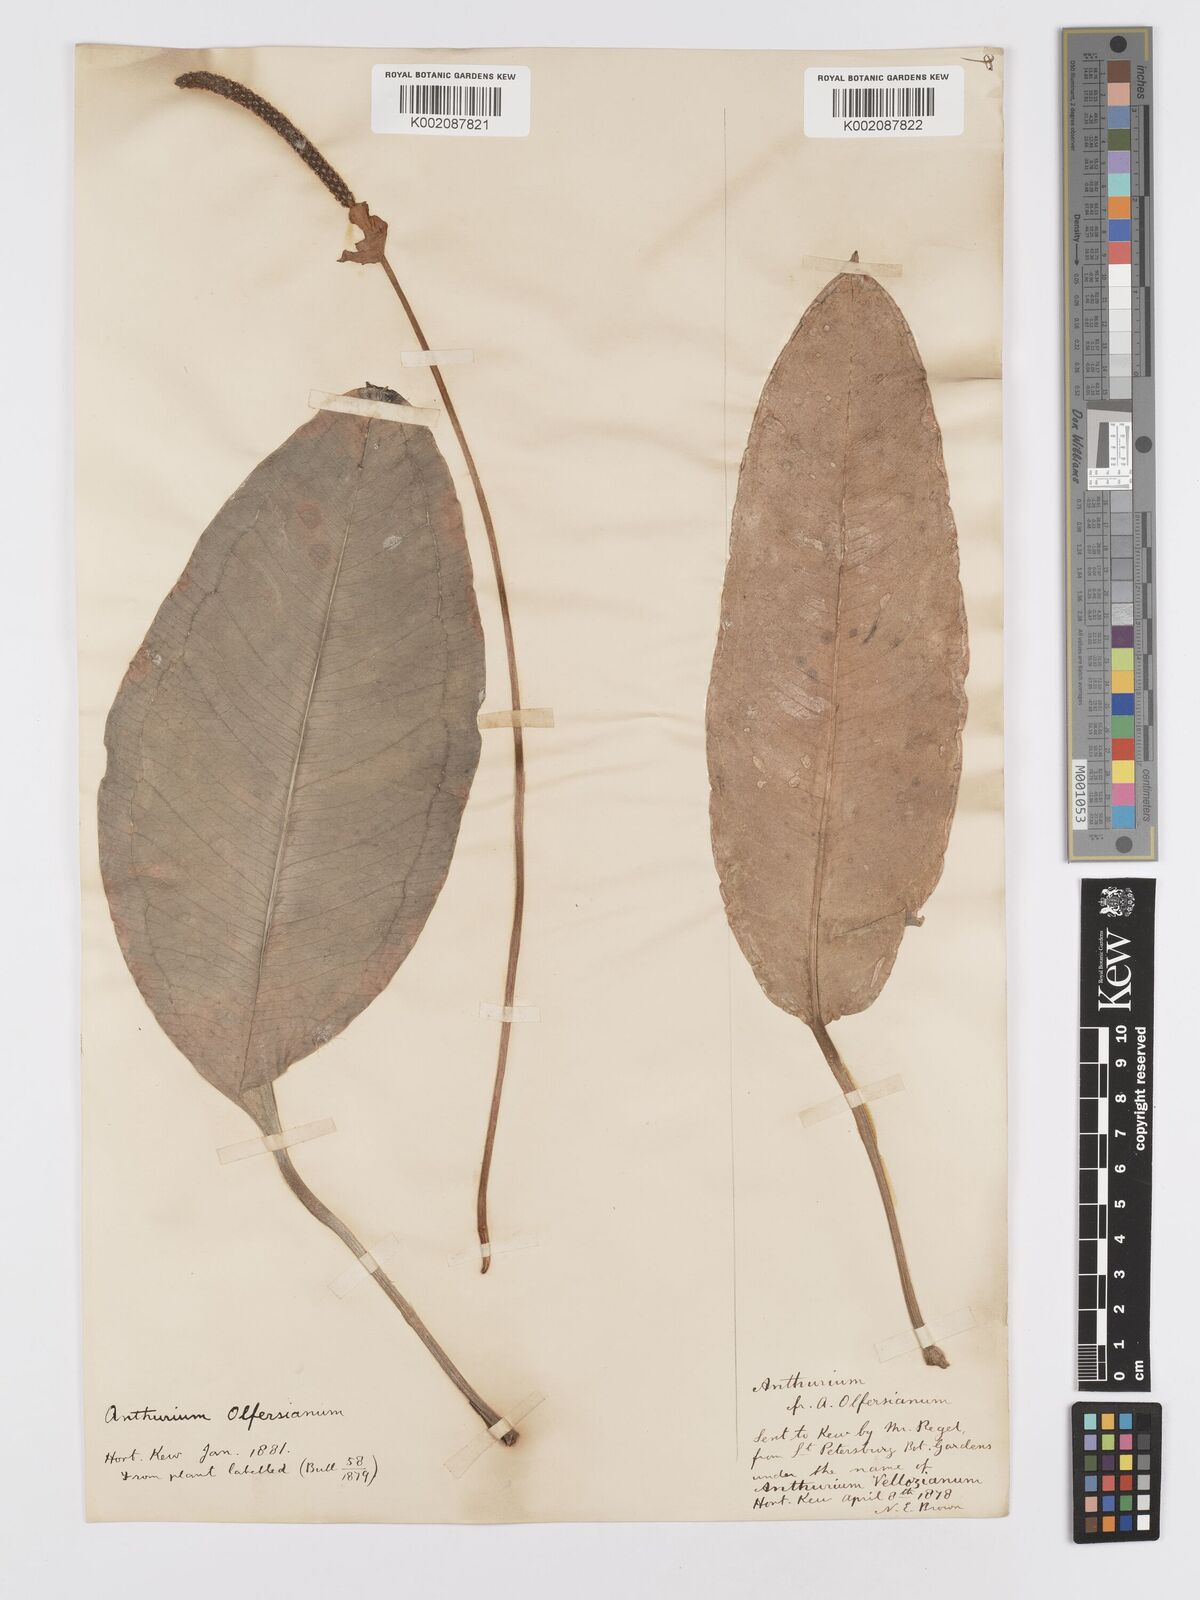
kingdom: Plantae
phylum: Tracheophyta
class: Liliopsida
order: Alismatales
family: Araceae
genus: Anthurium
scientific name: Anthurium parasiticum
